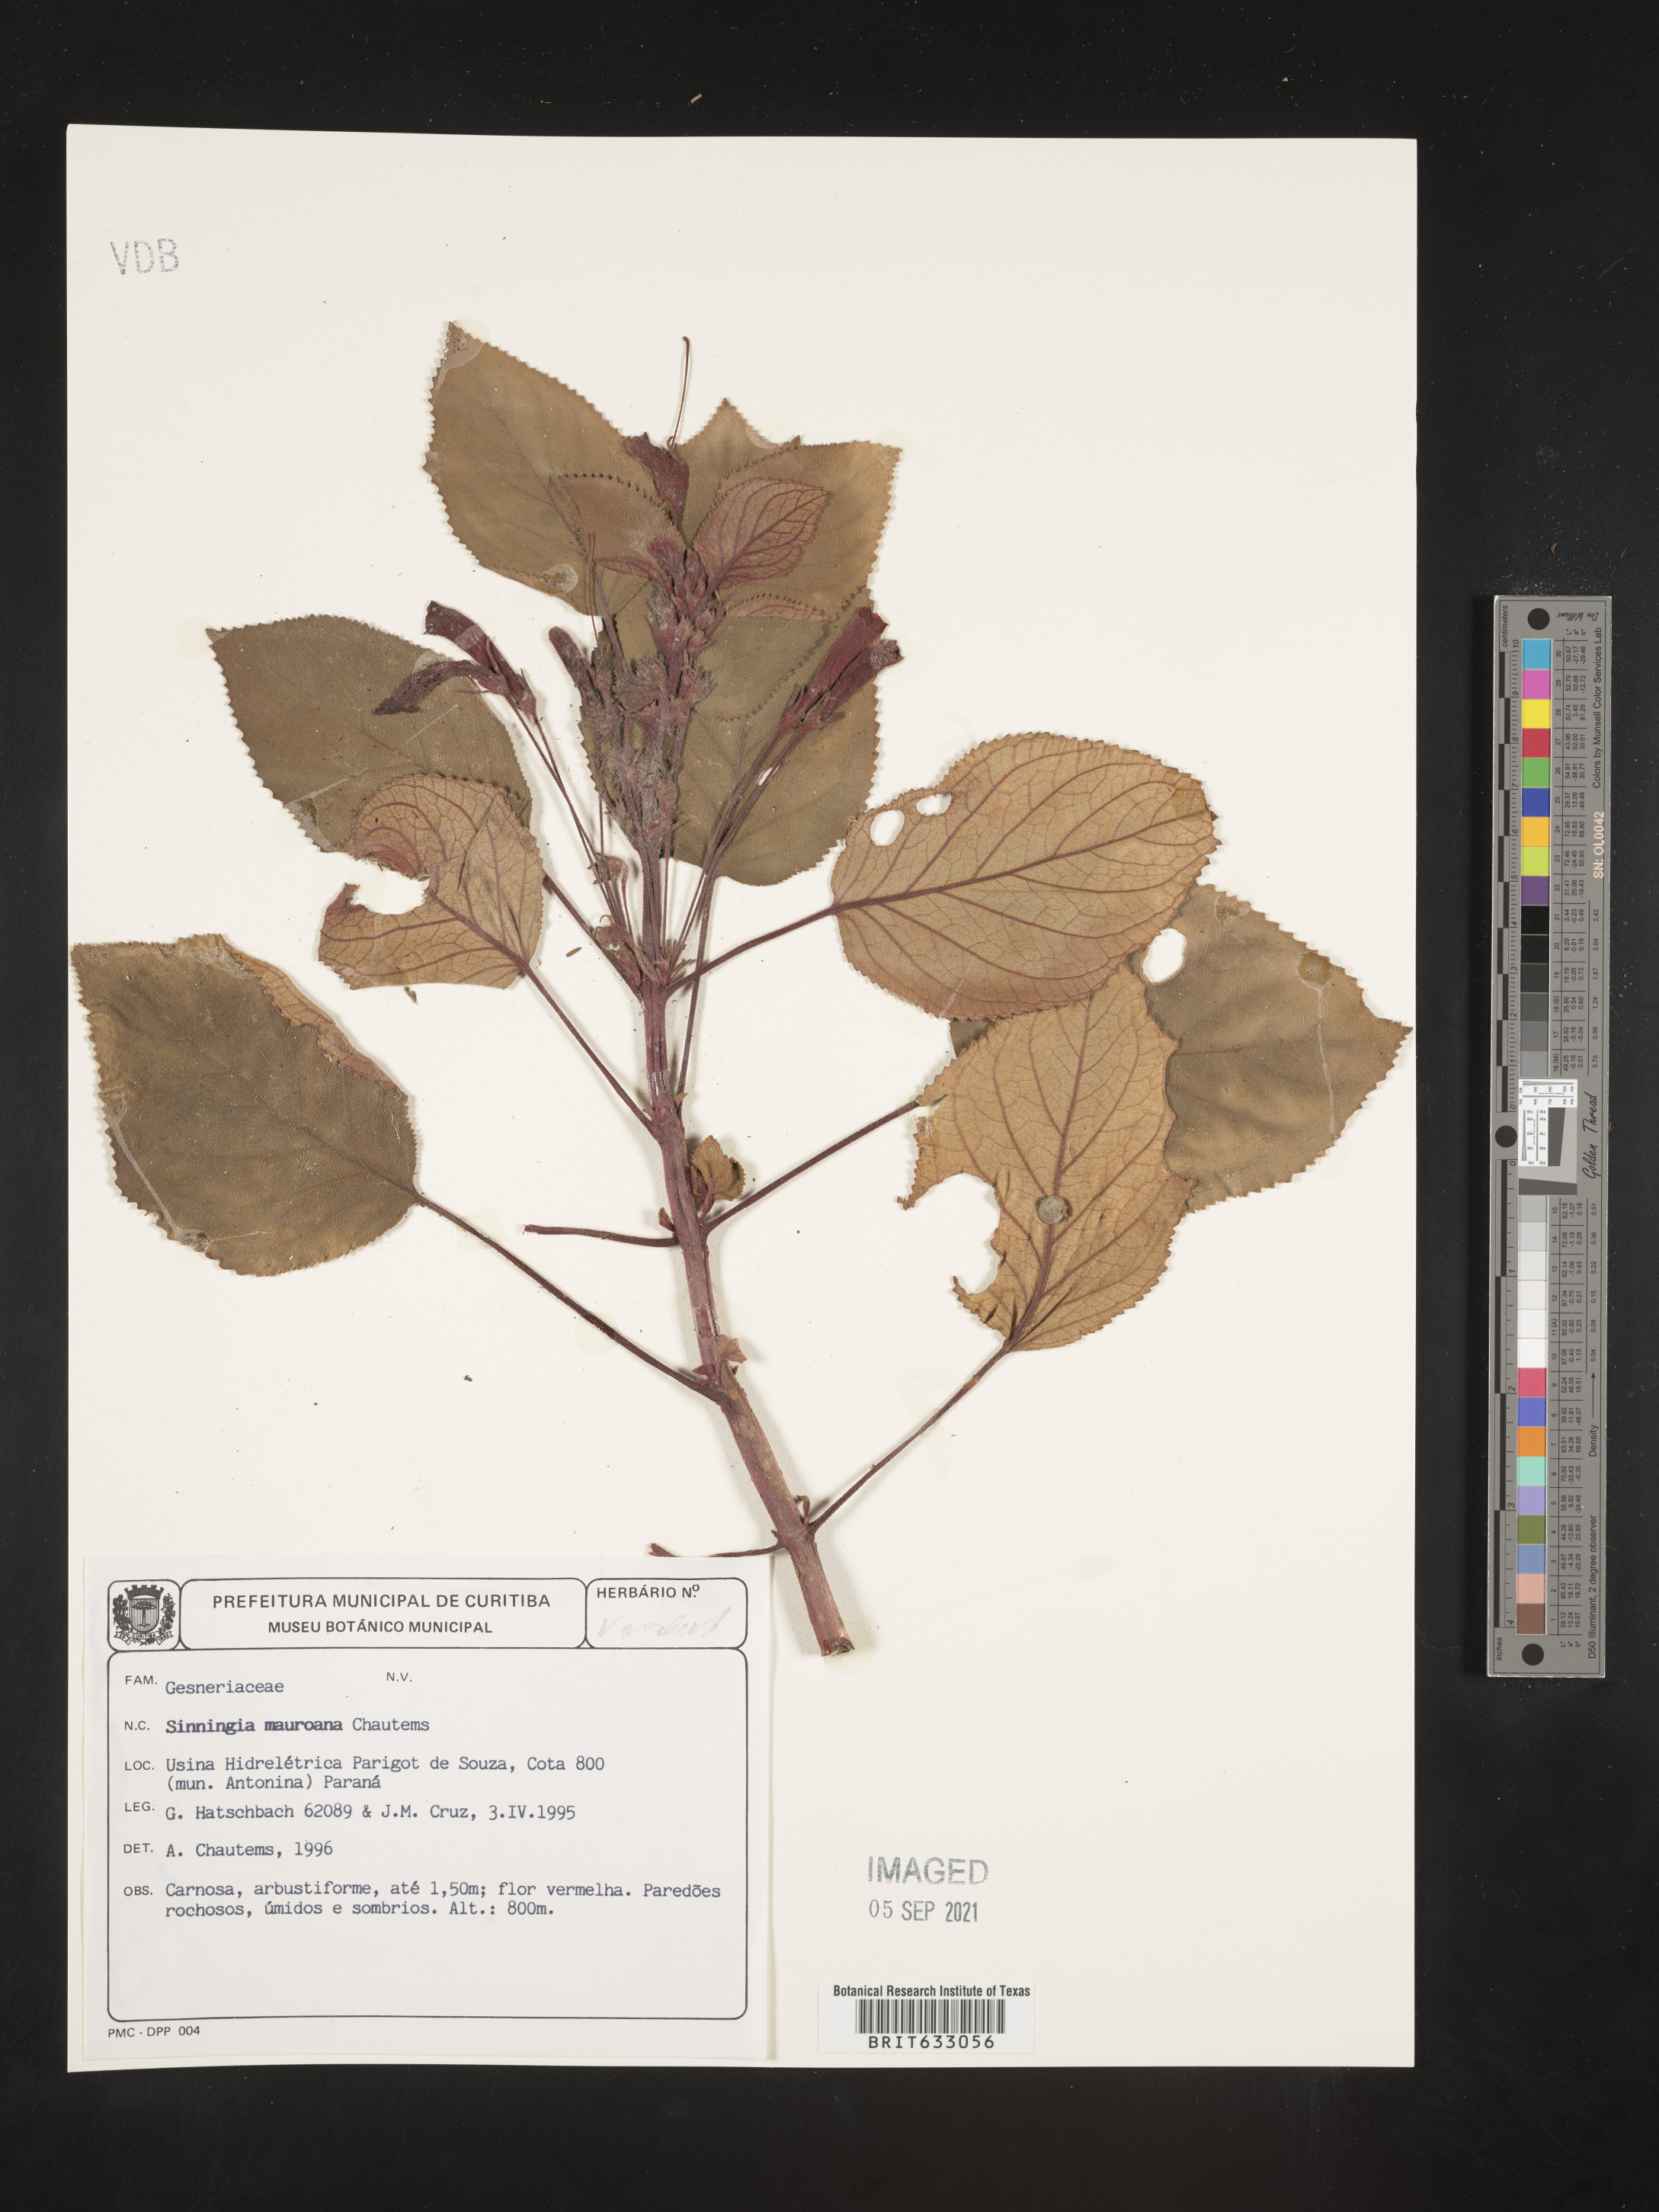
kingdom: Plantae
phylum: Tracheophyta
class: Magnoliopsida
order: Lamiales
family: Gesneriaceae
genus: Sinningia
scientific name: Sinningia
